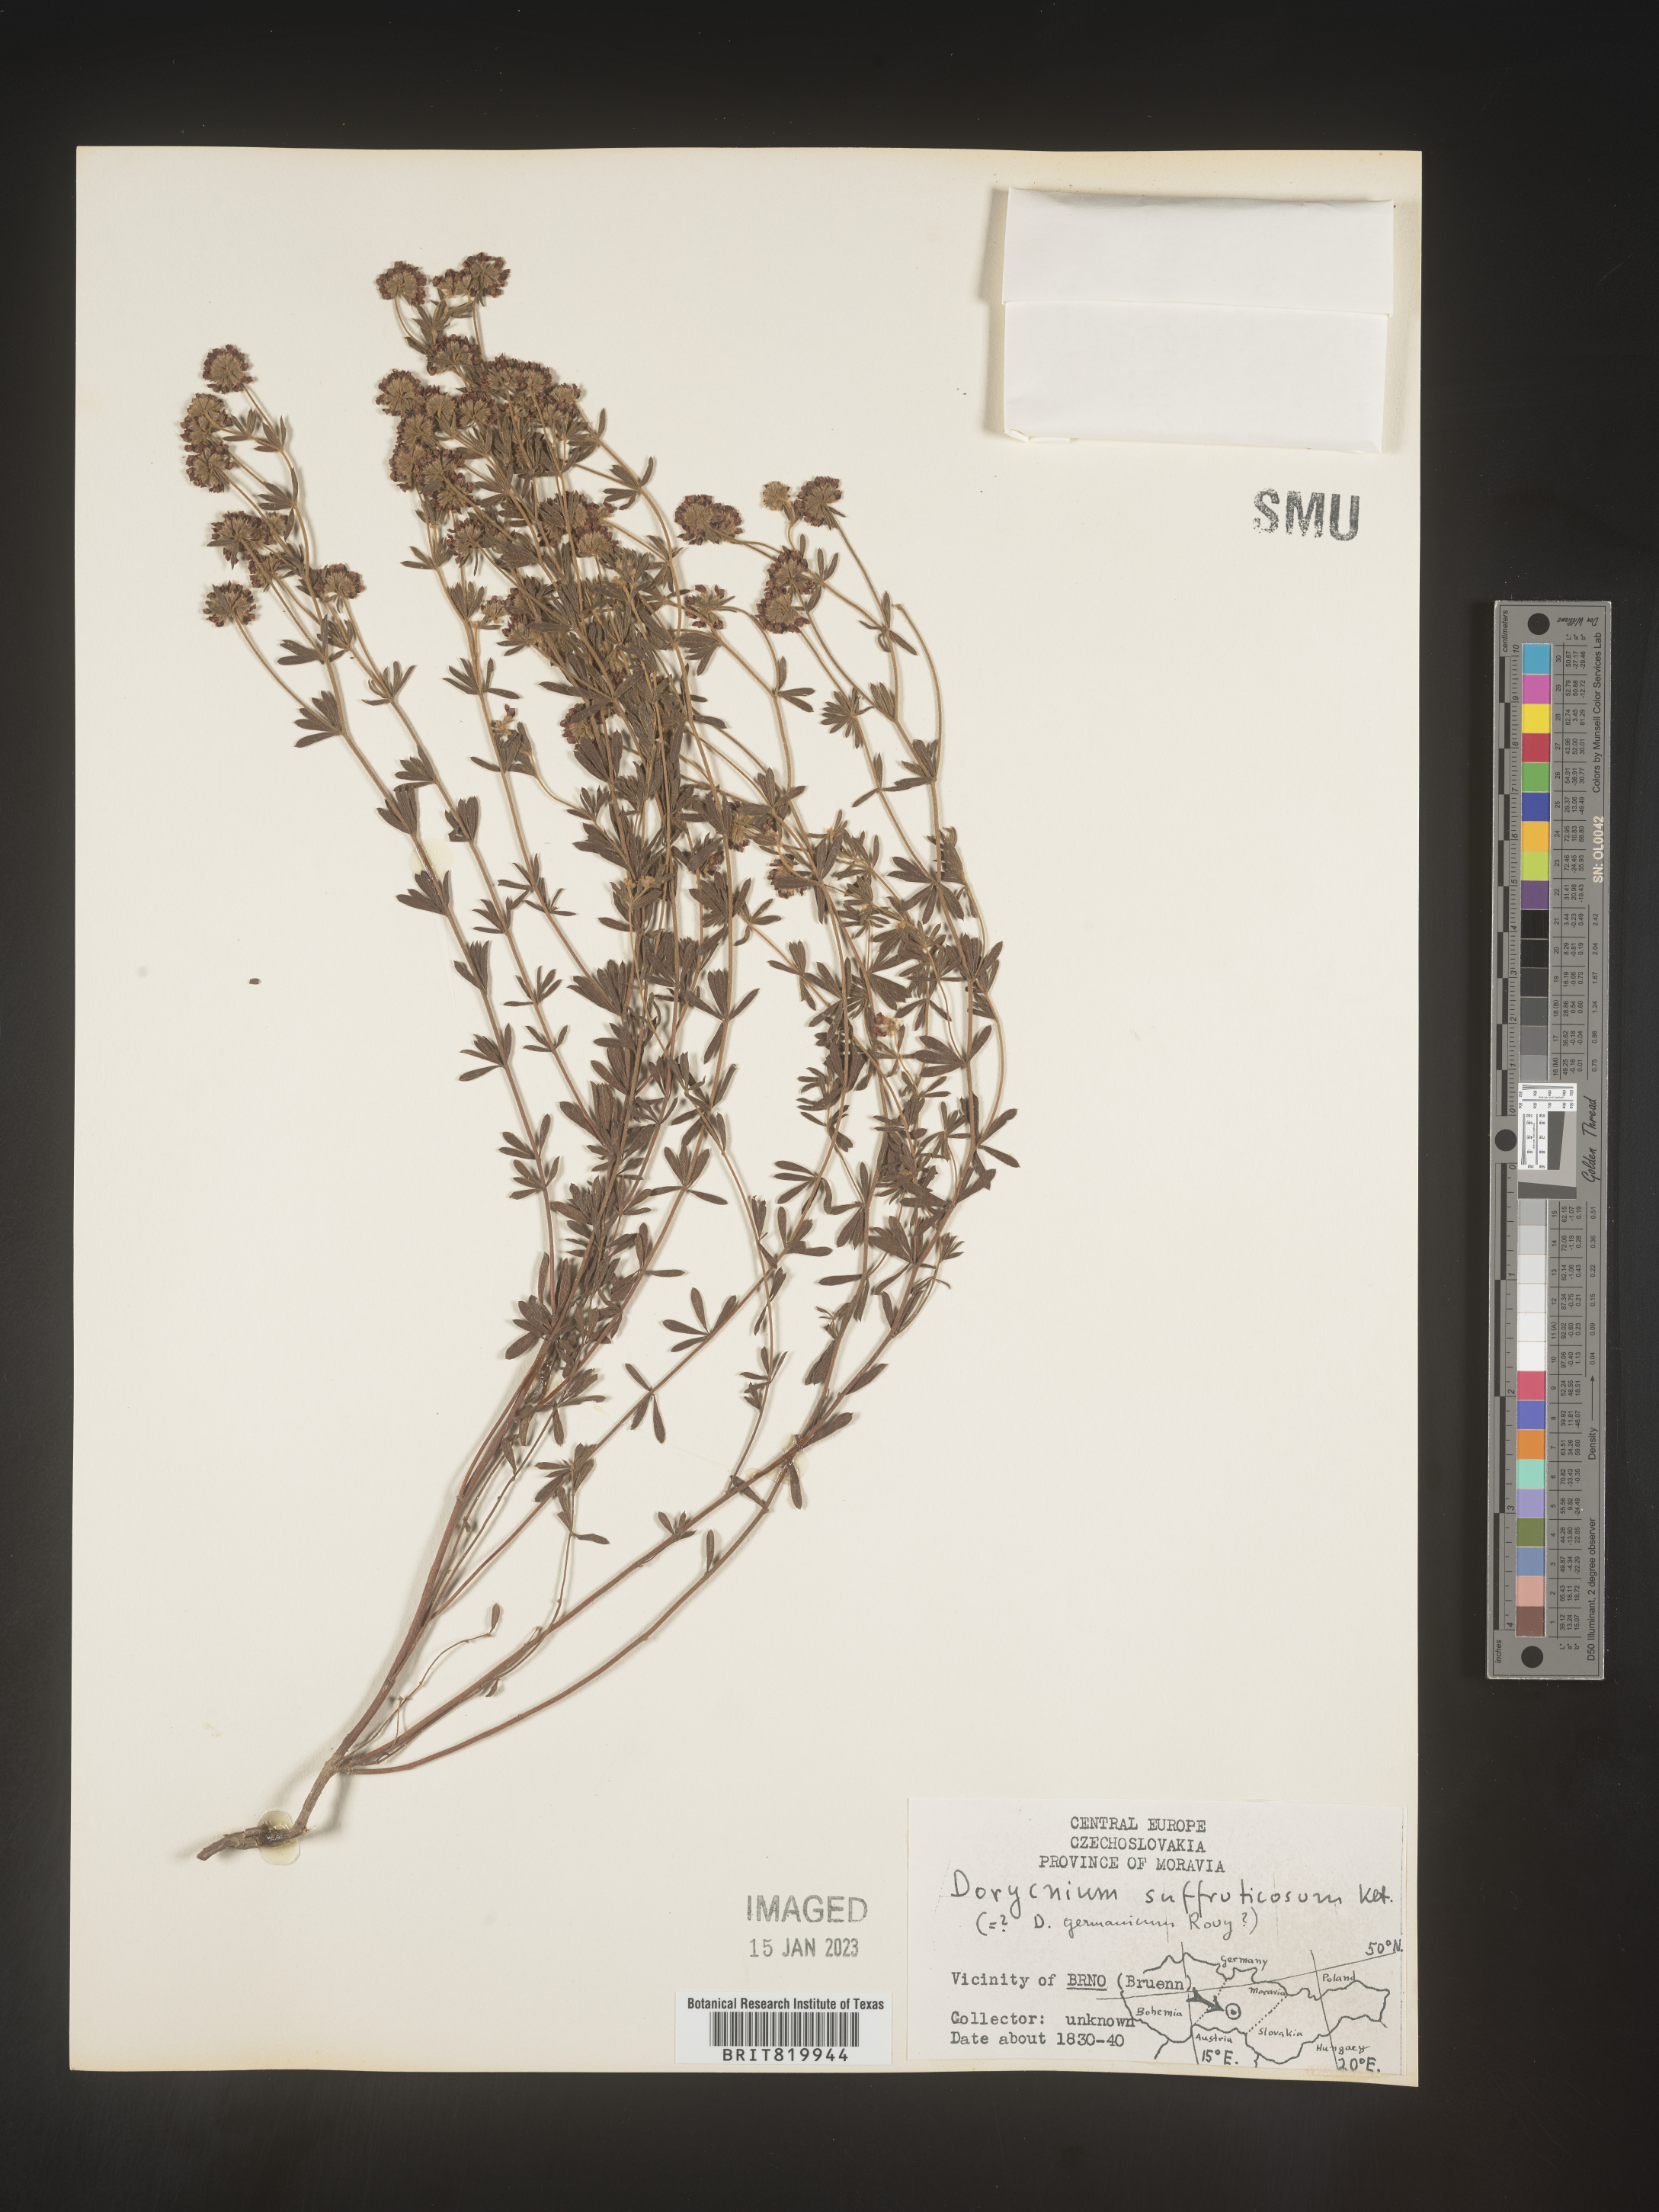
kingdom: Plantae
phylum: Tracheophyta
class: Magnoliopsida
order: Fabales
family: Fabaceae
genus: Lotus
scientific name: Lotus
